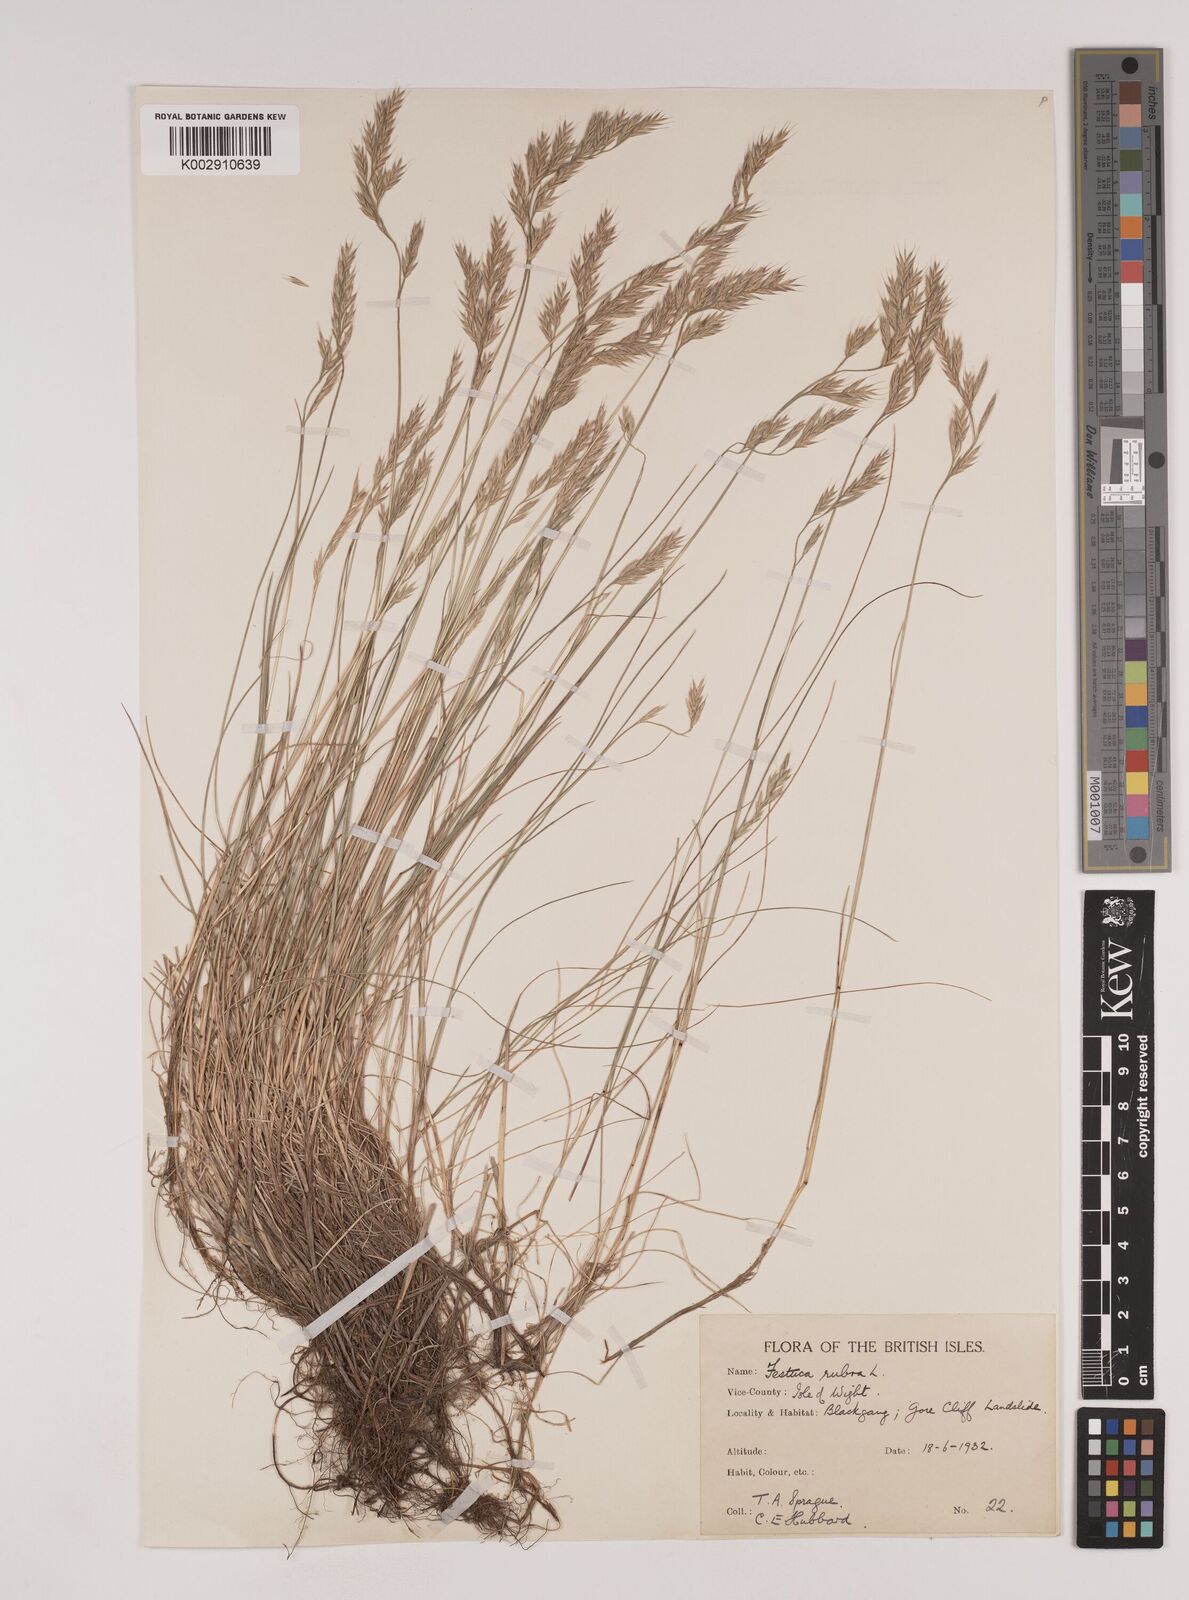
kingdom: Plantae
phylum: Tracheophyta
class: Liliopsida
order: Poales
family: Poaceae
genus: Festuca
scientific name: Festuca rubra
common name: Red fescue
